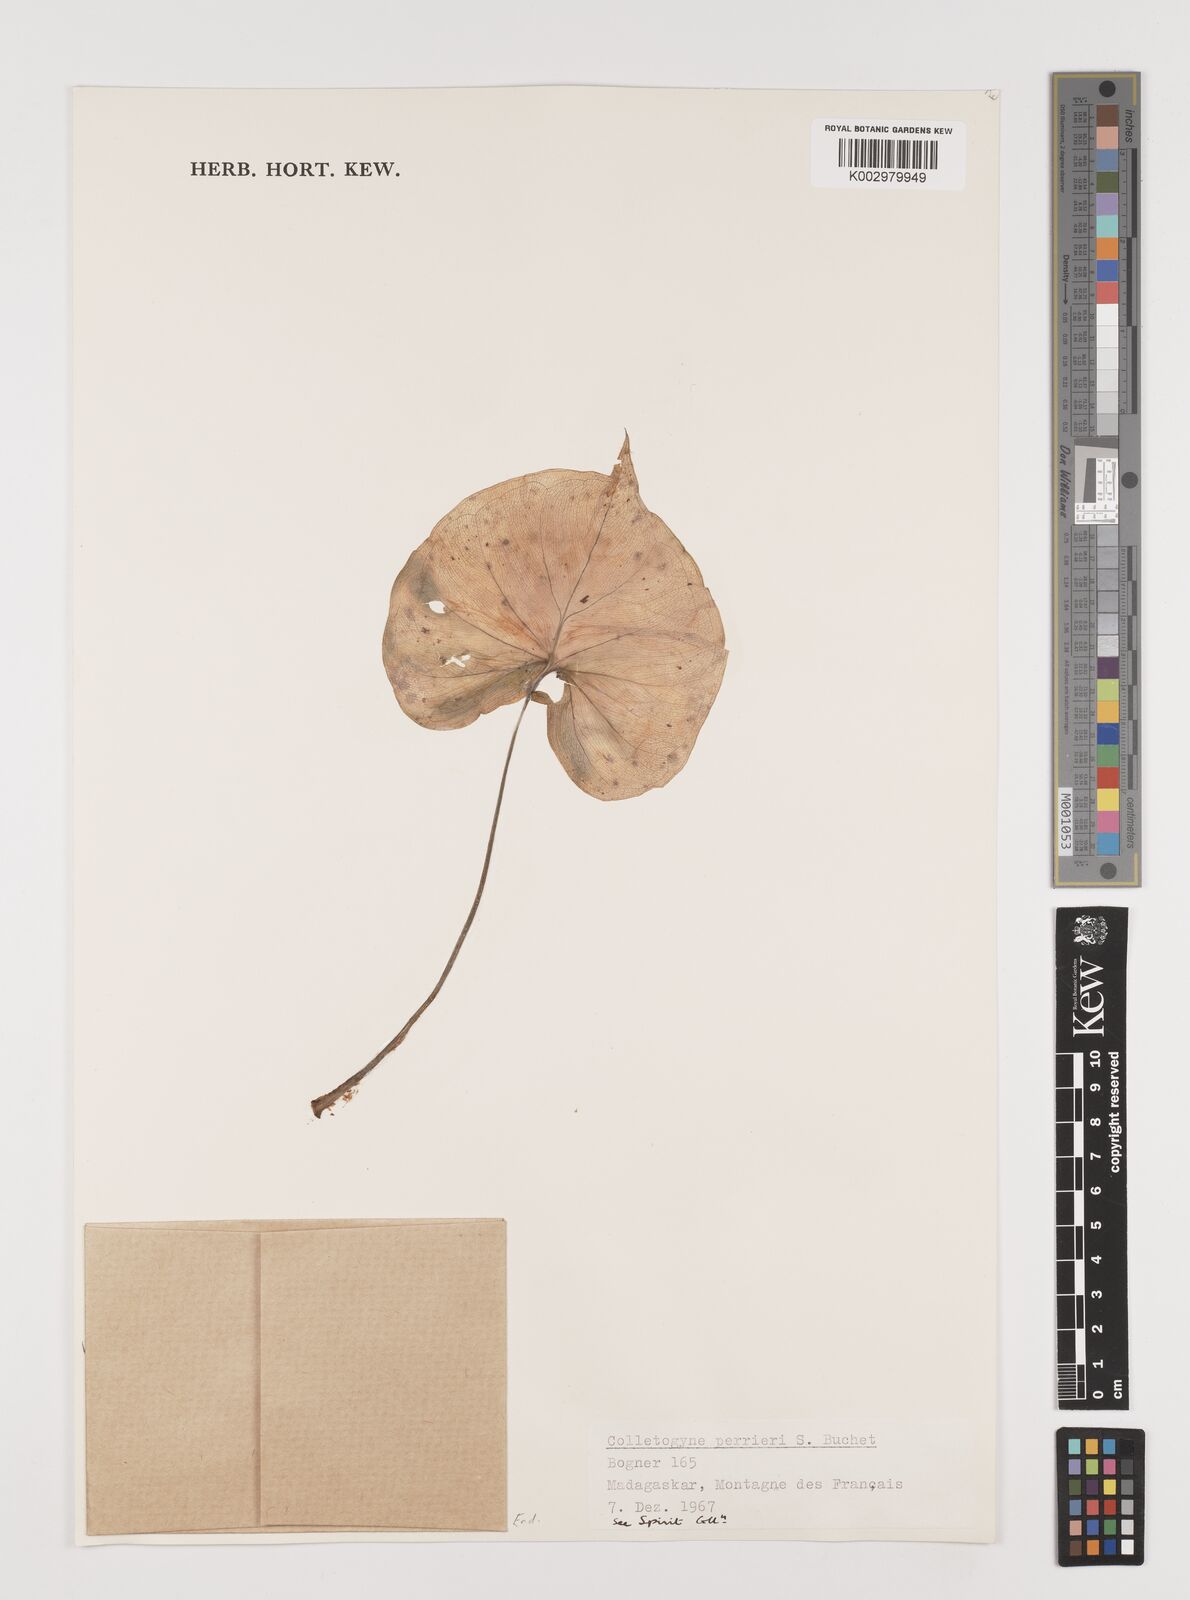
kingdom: Plantae
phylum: Tracheophyta
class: Liliopsida
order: Alismatales
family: Araceae
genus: Colletogyne
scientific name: Colletogyne perrieri
